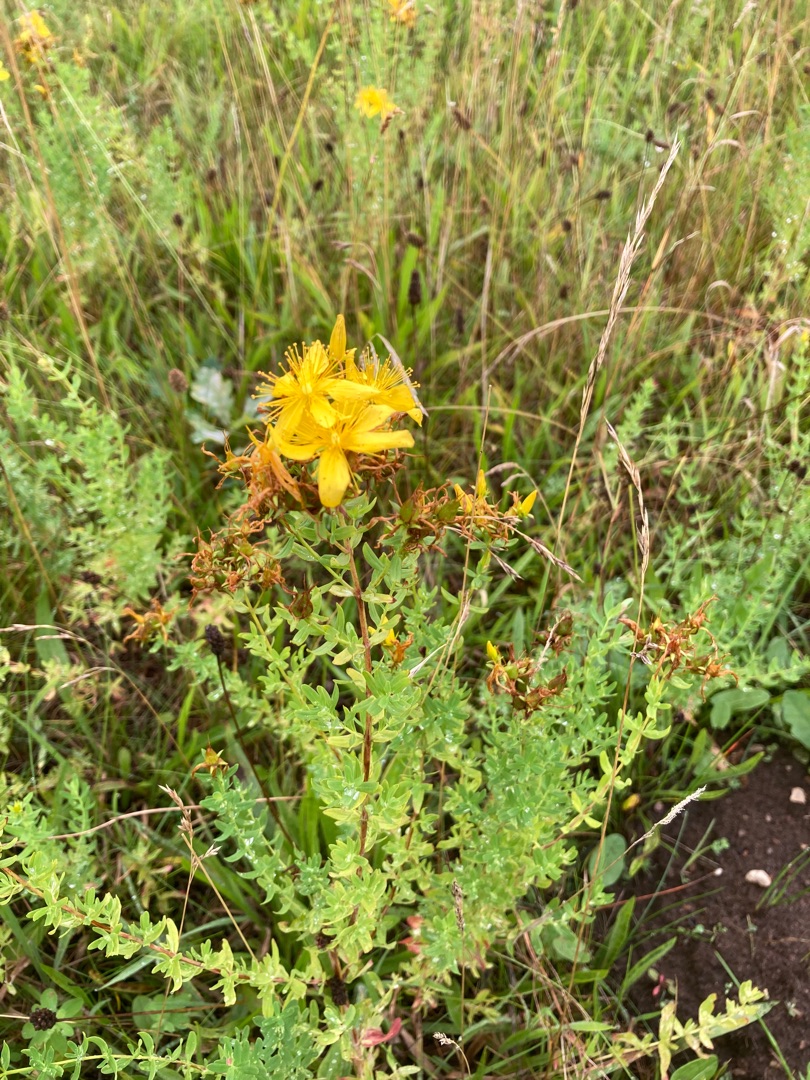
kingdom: Plantae
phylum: Tracheophyta
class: Magnoliopsida
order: Malpighiales
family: Hypericaceae
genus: Hypericum
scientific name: Hypericum perforatum
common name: Prikbladet perikon
